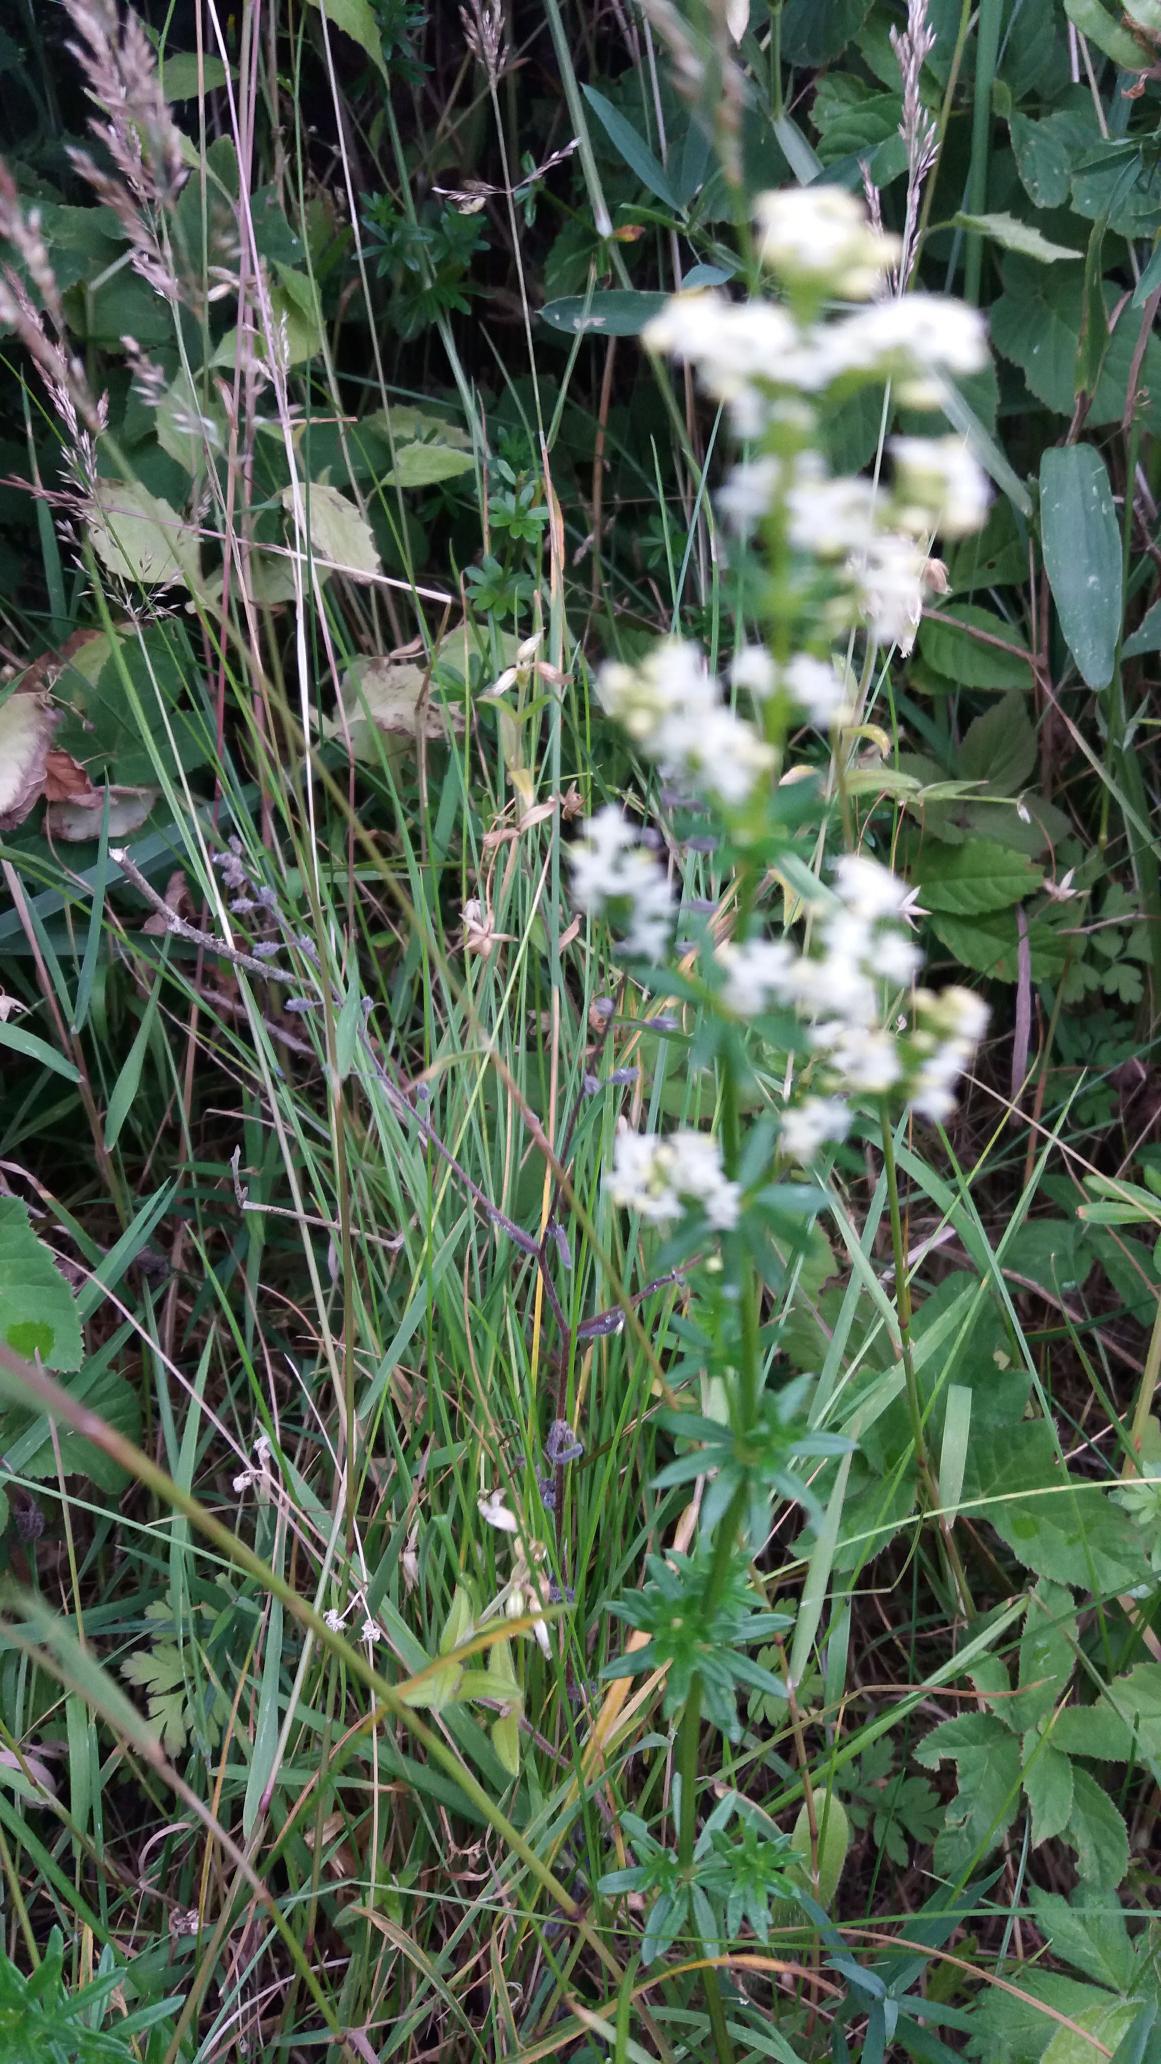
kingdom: Plantae
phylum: Tracheophyta
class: Magnoliopsida
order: Gentianales
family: Rubiaceae
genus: Galium
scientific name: Galium mollugo
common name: Hvid snerre
